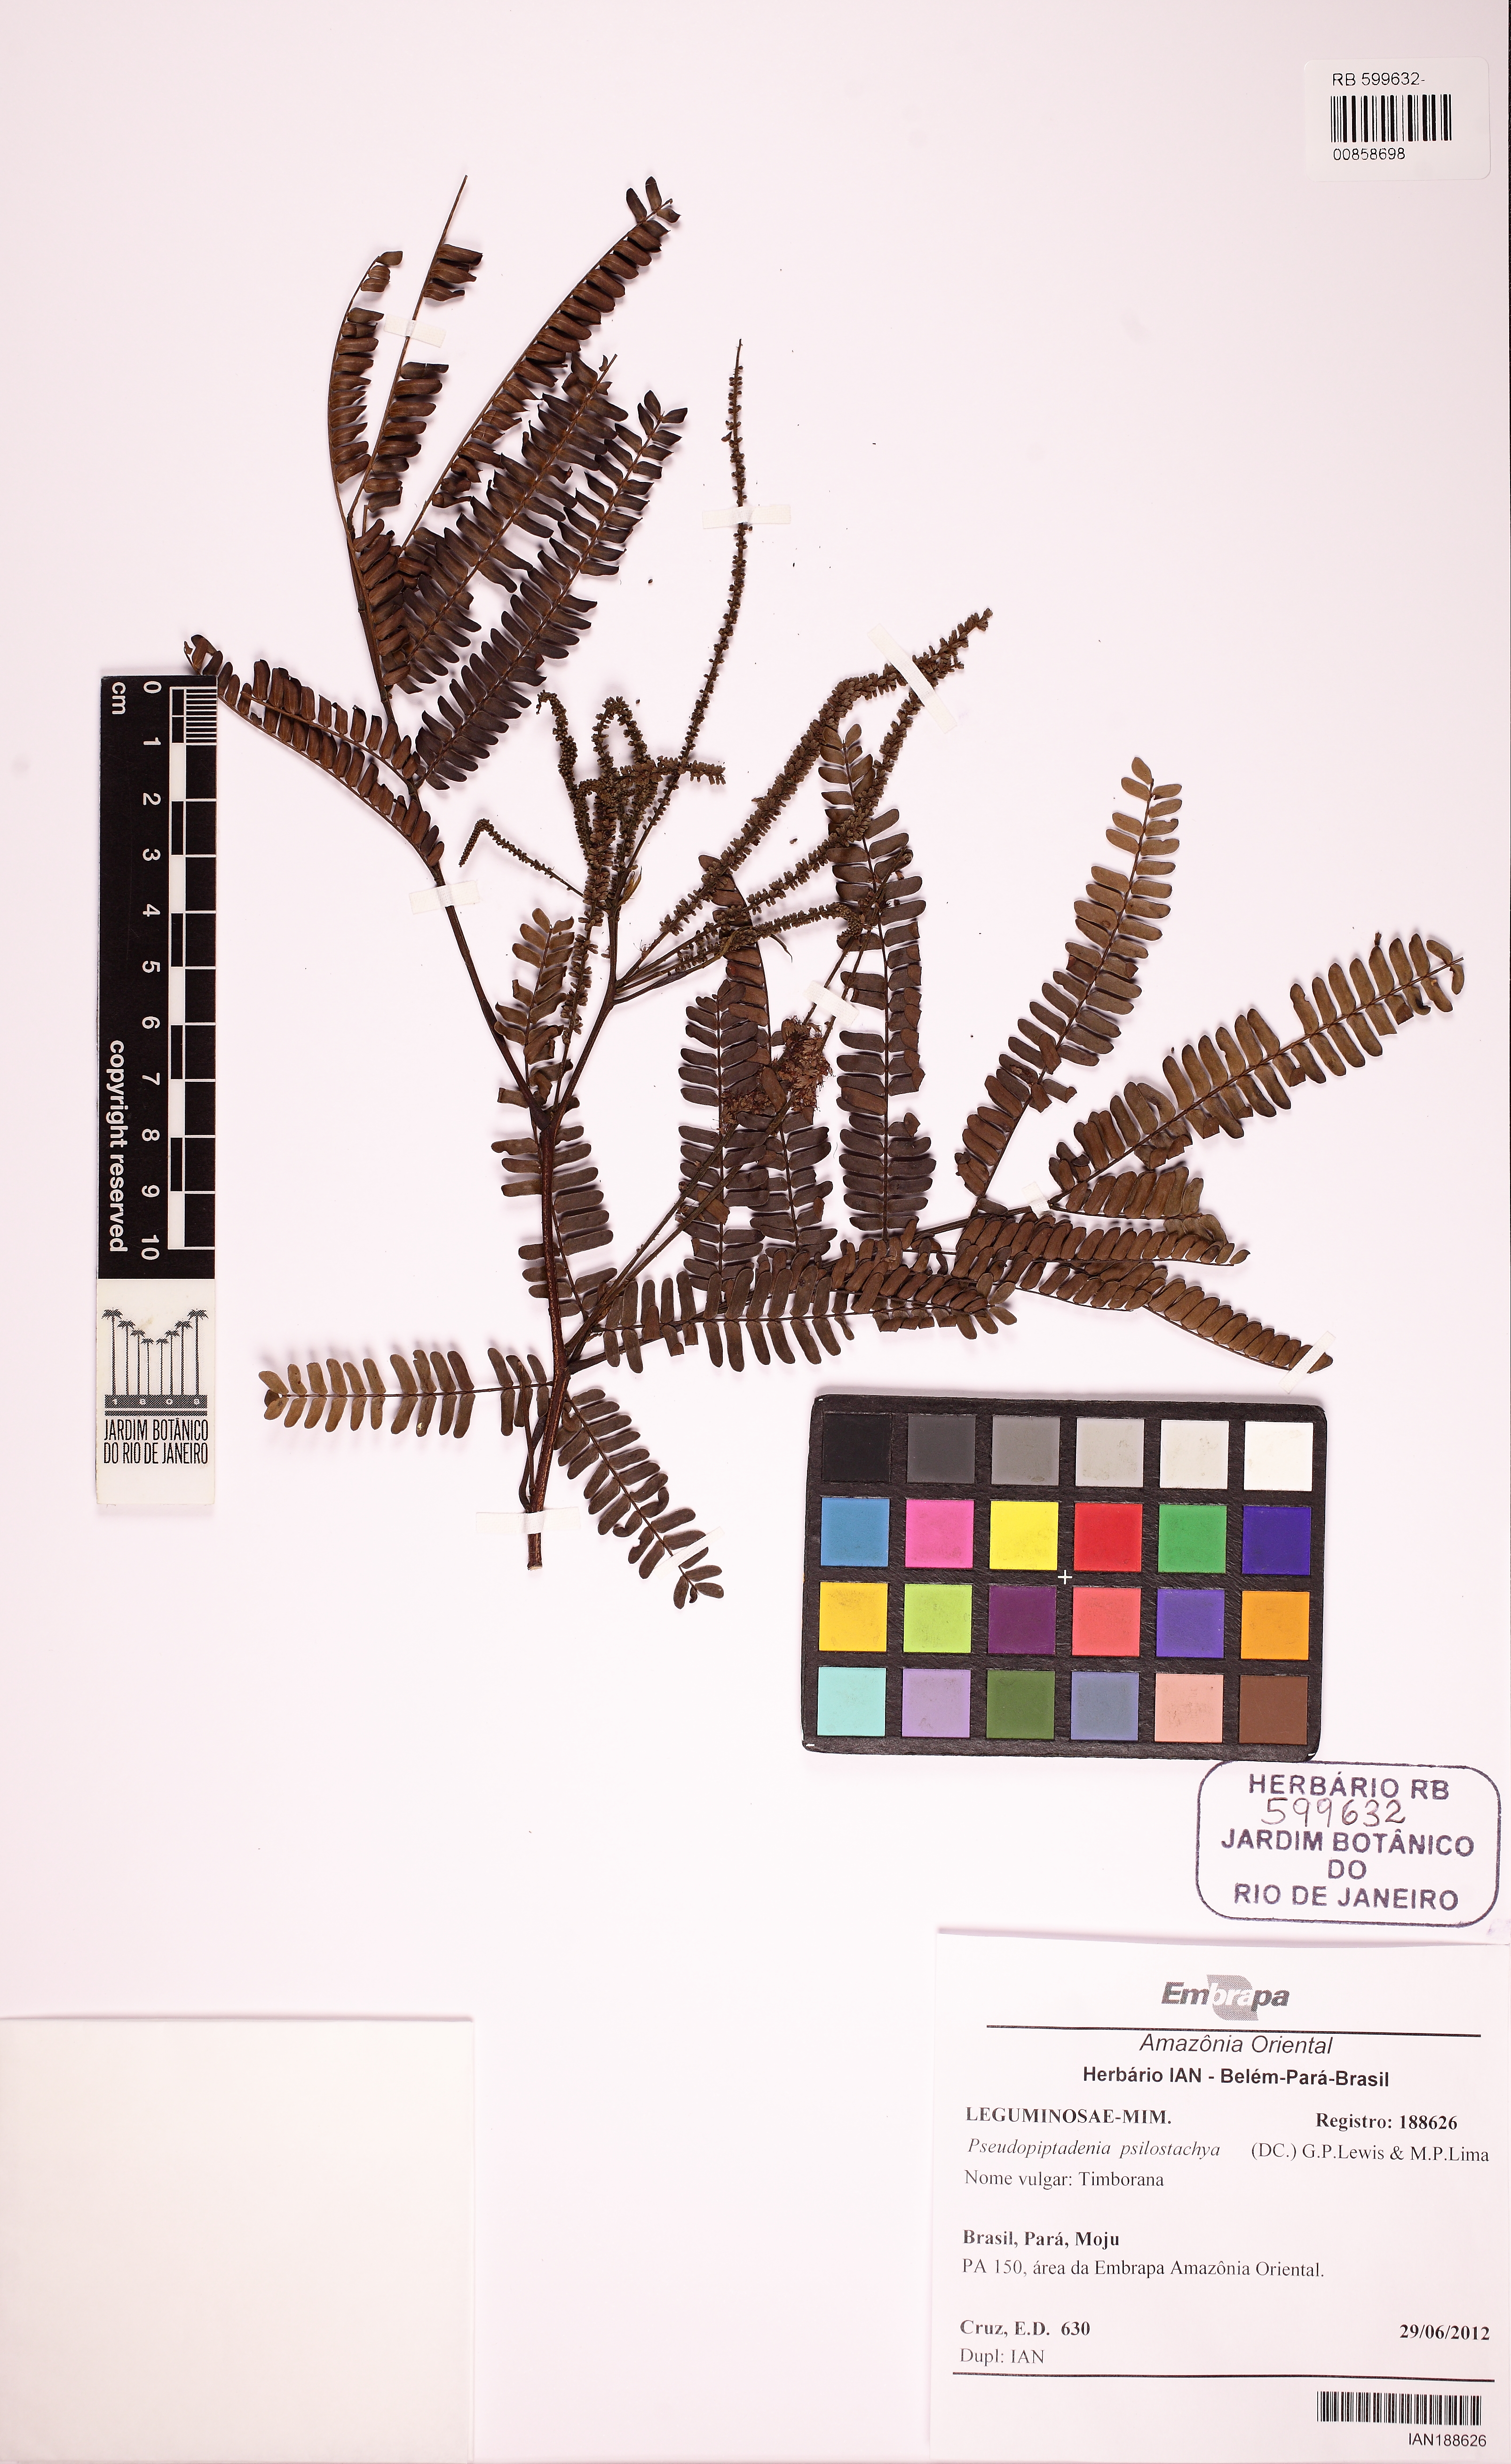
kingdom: Plantae
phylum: Tracheophyta
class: Magnoliopsida
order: Fabales
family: Fabaceae
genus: Pseudopiptadenia
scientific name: Pseudopiptadenia psilostachya
